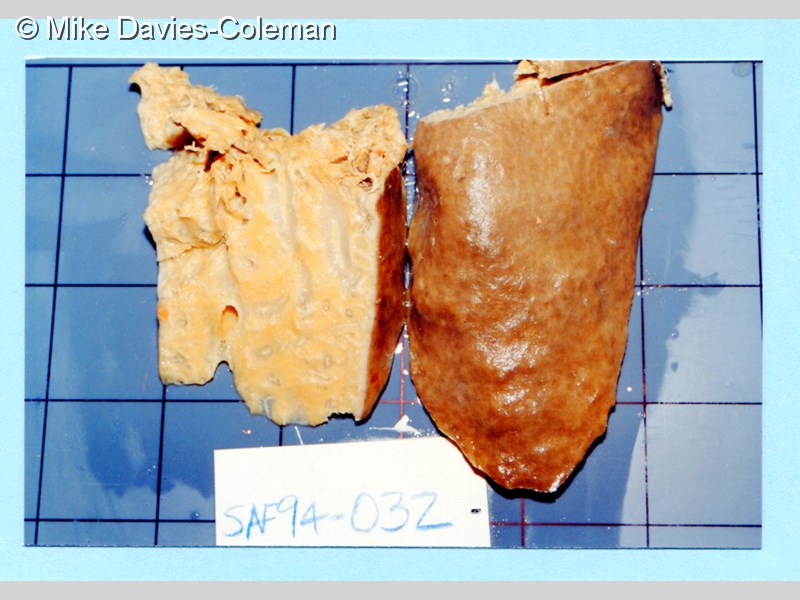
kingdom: Animalia
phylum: Porifera
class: Demospongiae
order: Clionaida
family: Spirastrellidae
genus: Spirastrella
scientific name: Spirastrella
